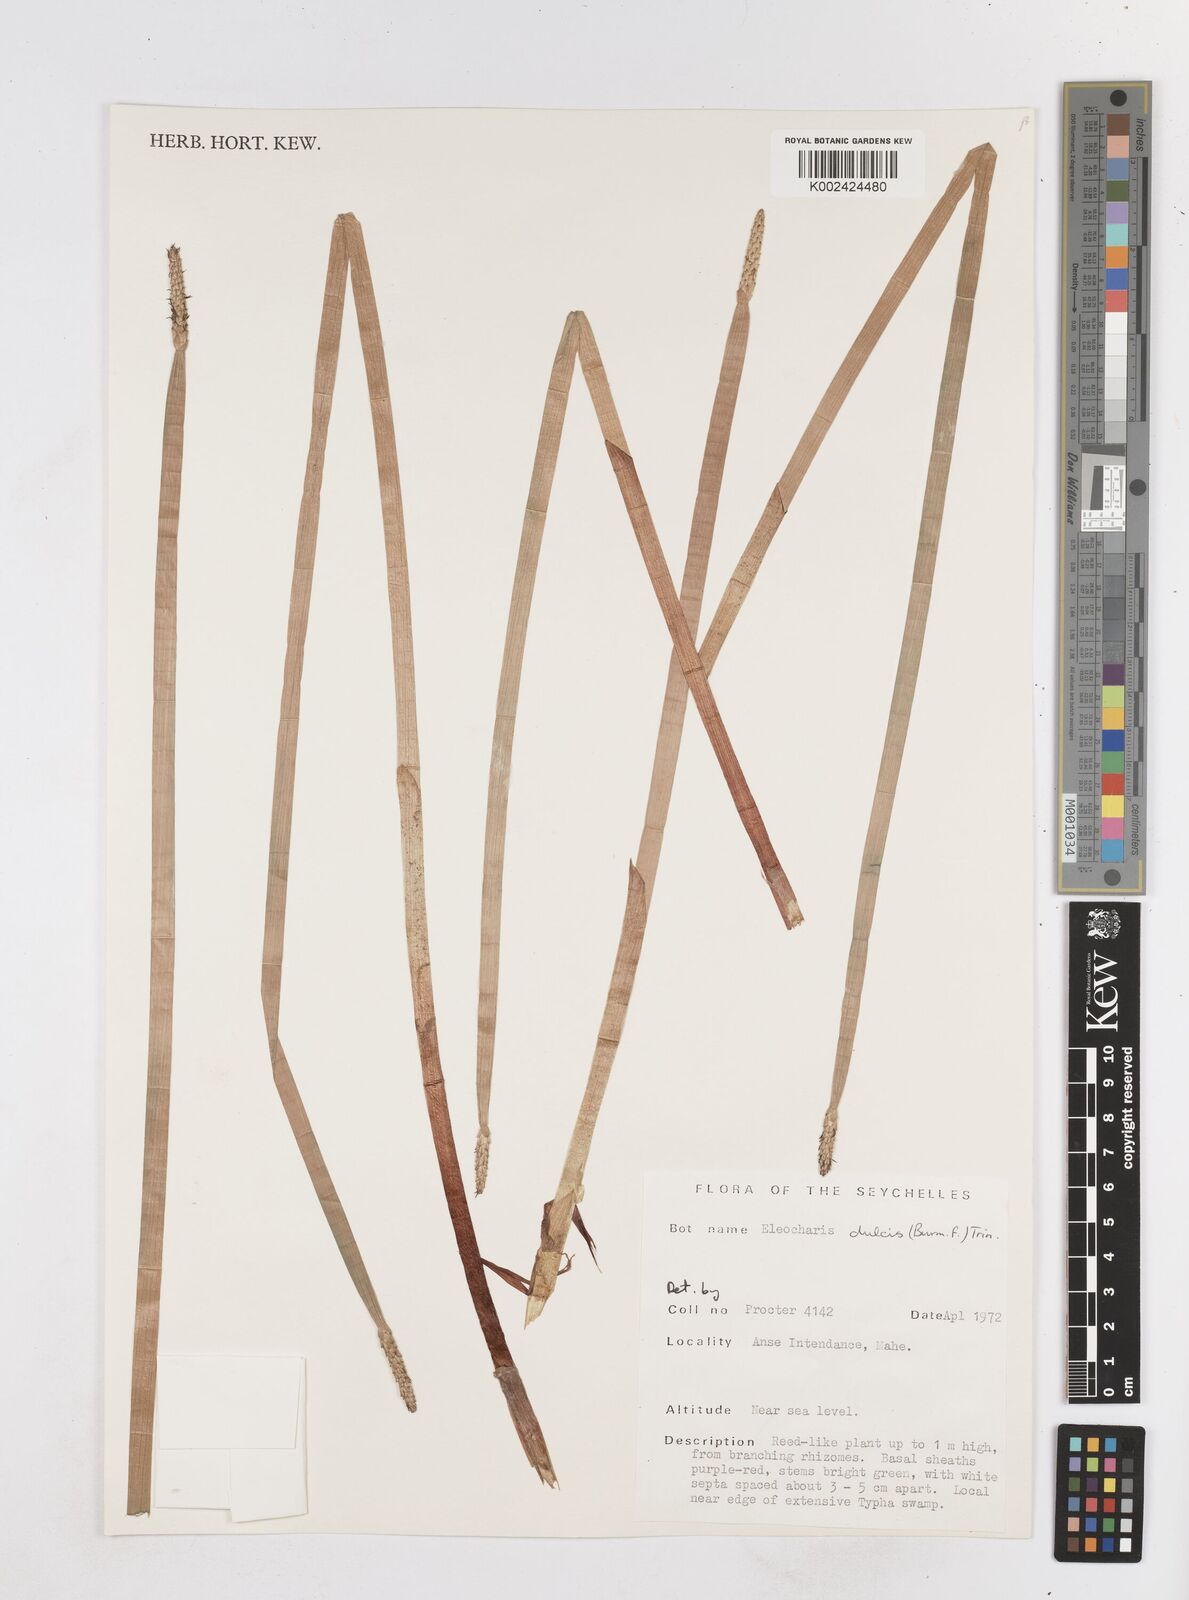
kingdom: Plantae
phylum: Tracheophyta
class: Liliopsida
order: Poales
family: Cyperaceae
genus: Eleocharis
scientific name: Eleocharis dulcis
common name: Chinese water chestnut
